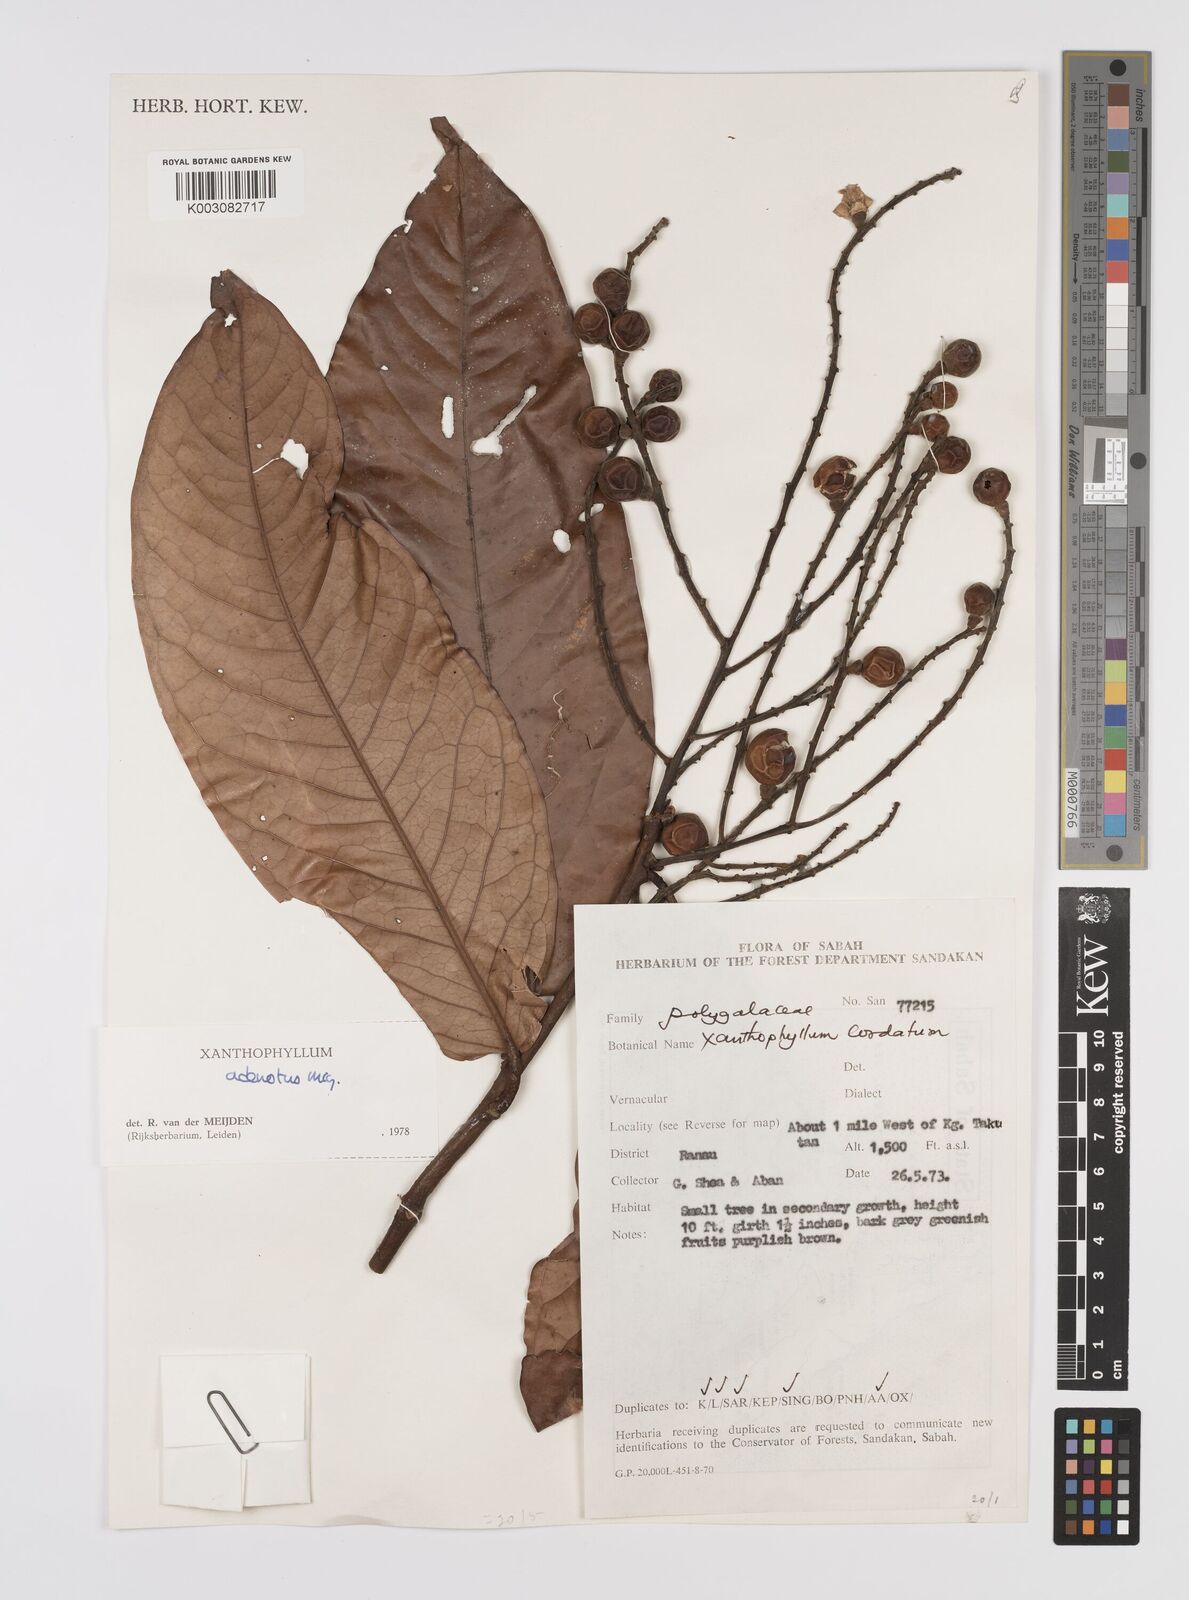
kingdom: Plantae
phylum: Tracheophyta
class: Magnoliopsida
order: Fabales
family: Polygalaceae
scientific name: Polygalaceae
